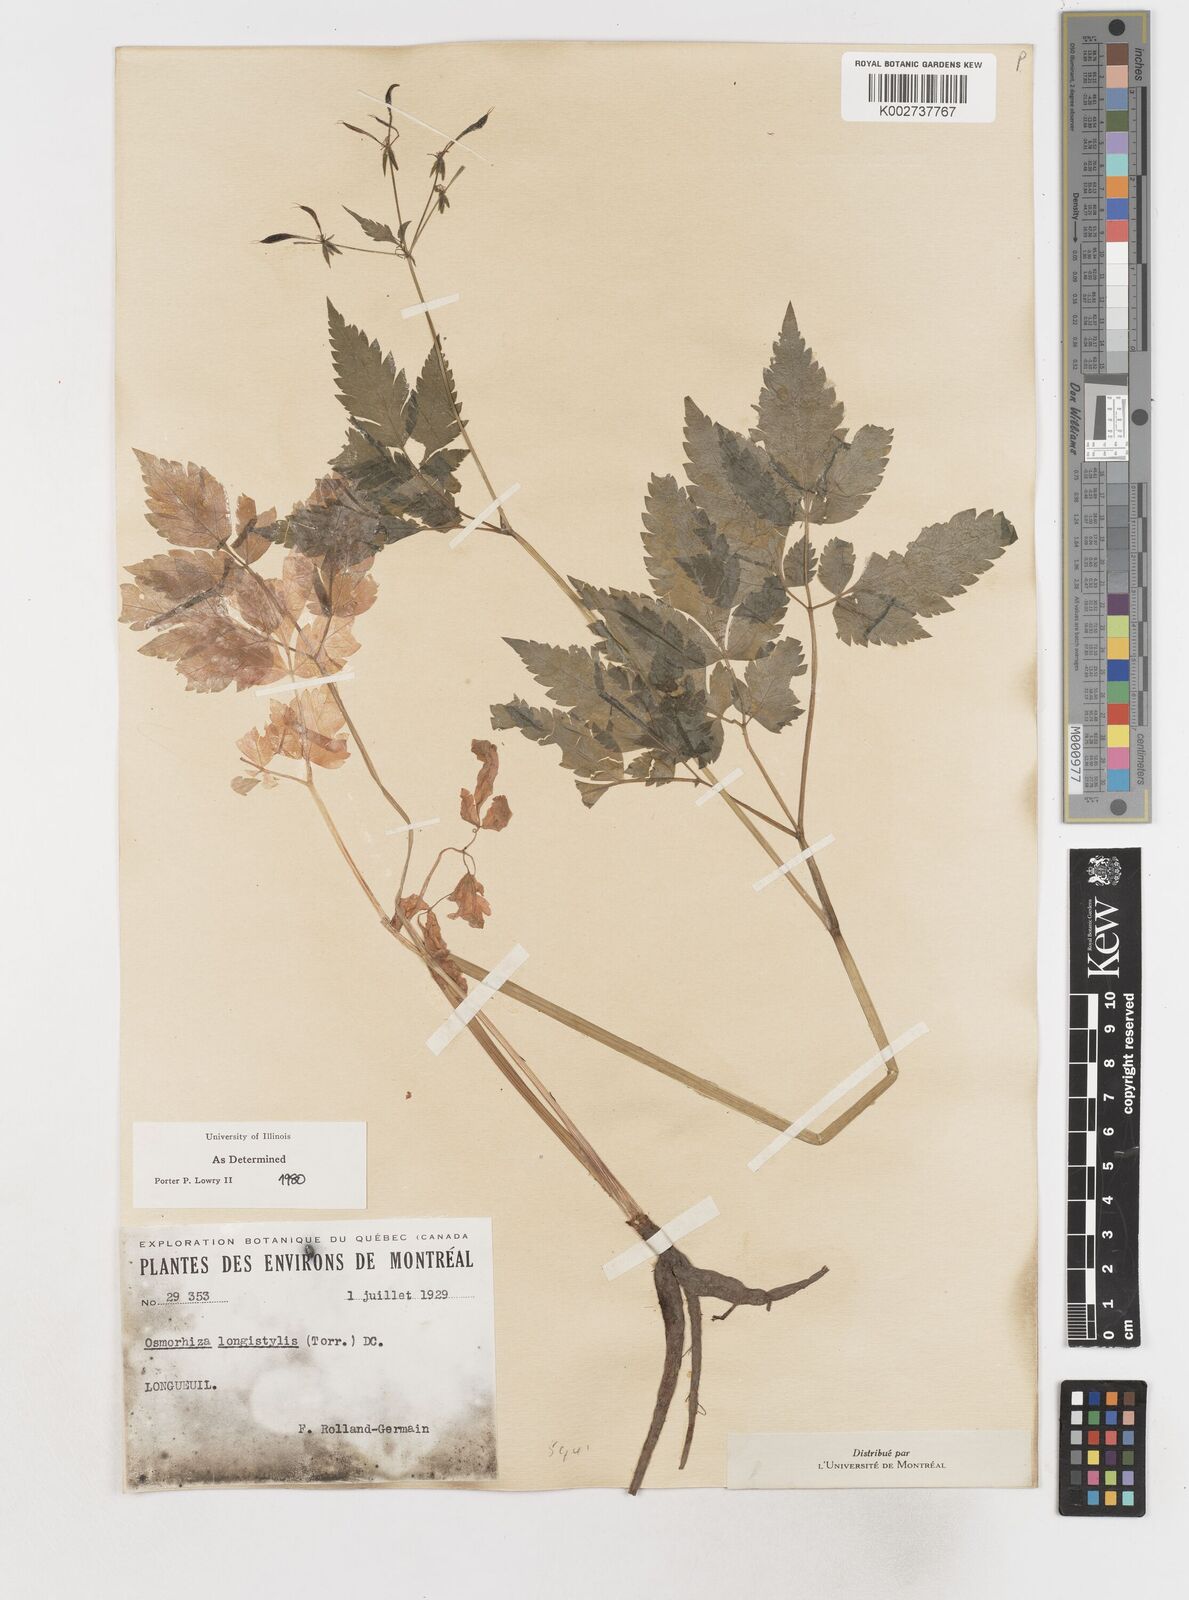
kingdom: Plantae
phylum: Tracheophyta
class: Magnoliopsida
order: Apiales
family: Apiaceae
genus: Osmorhiza
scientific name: Osmorhiza longistylis
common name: Smooth sweet cicely
